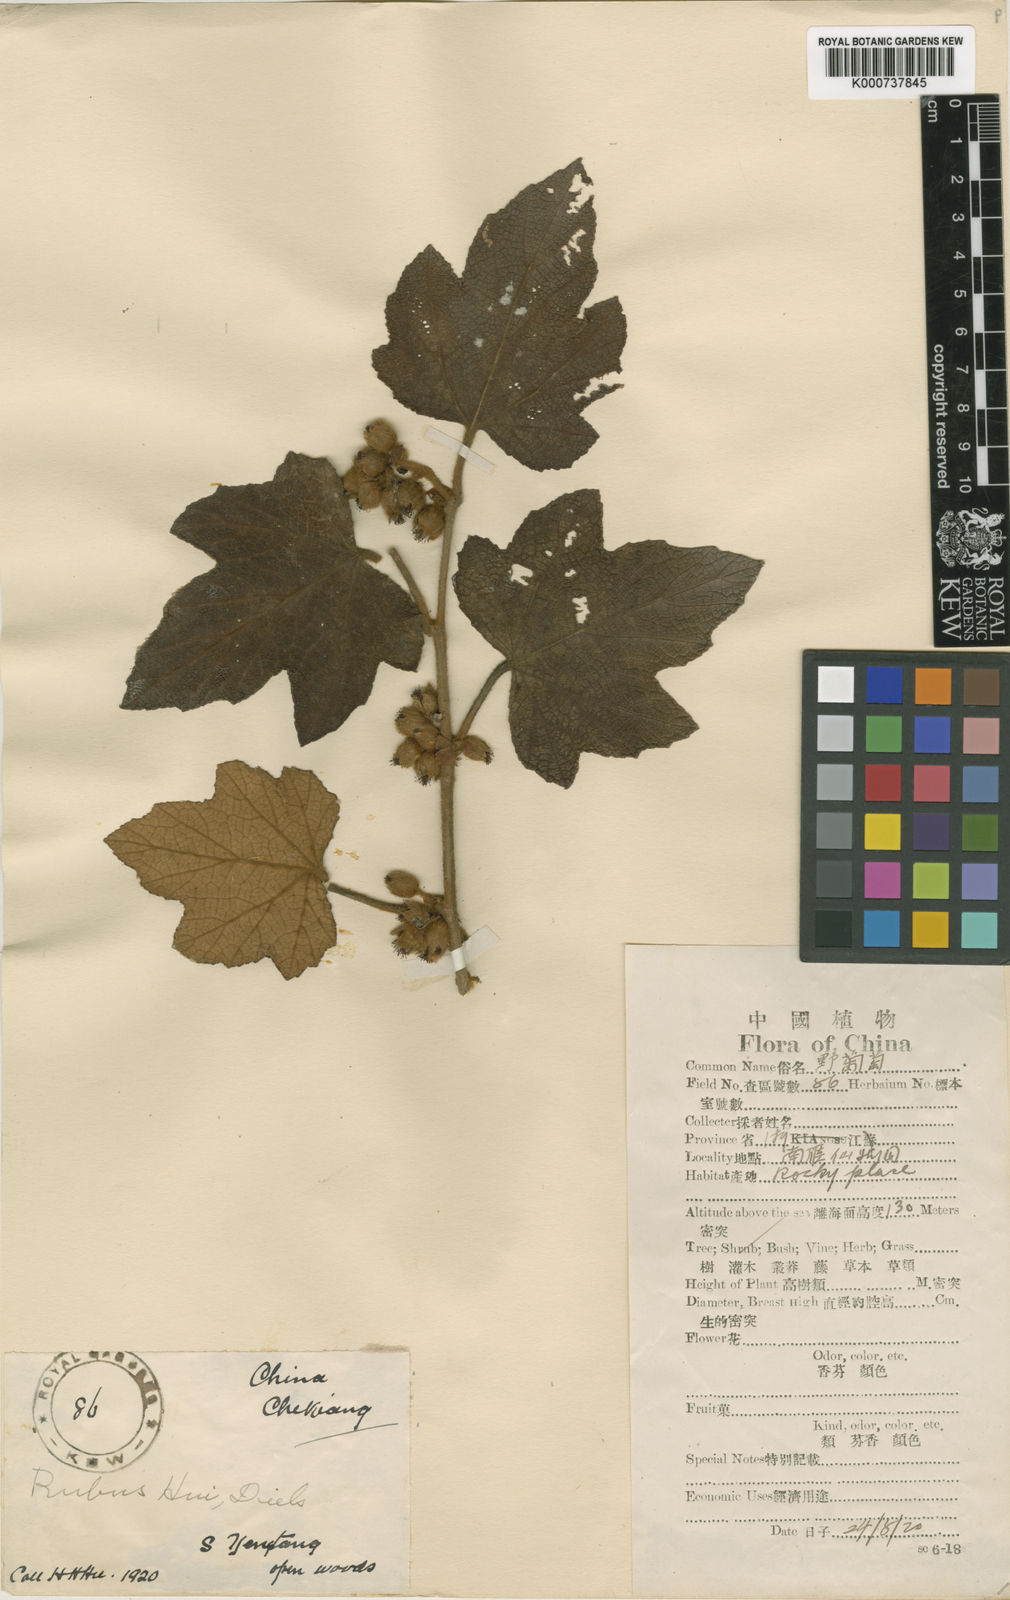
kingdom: Plantae
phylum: Tracheophyta
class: Magnoliopsida
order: Rosales
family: Rosaceae
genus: Rubus
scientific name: Rubus
